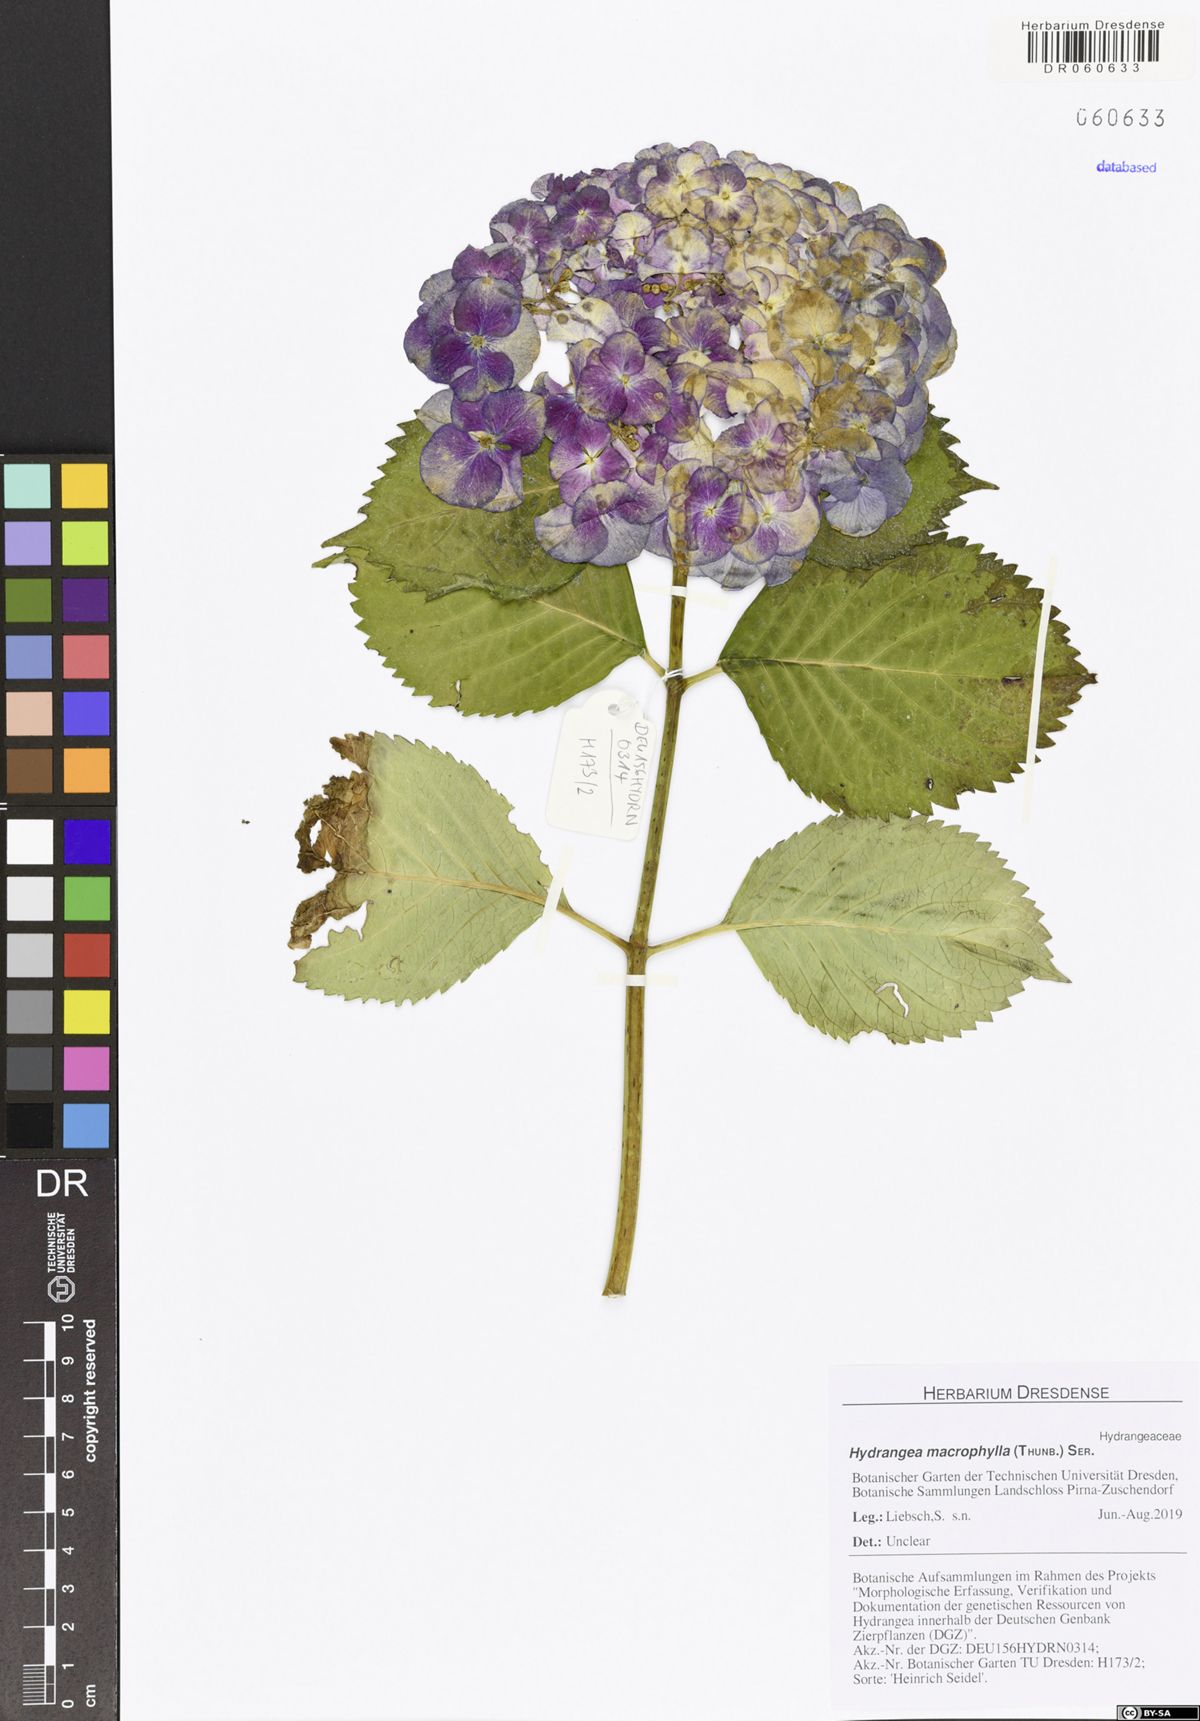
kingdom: Plantae
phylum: Tracheophyta
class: Magnoliopsida
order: Cornales
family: Hydrangeaceae
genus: Hydrangea
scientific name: Hydrangea macrophylla
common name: Hydrangea
